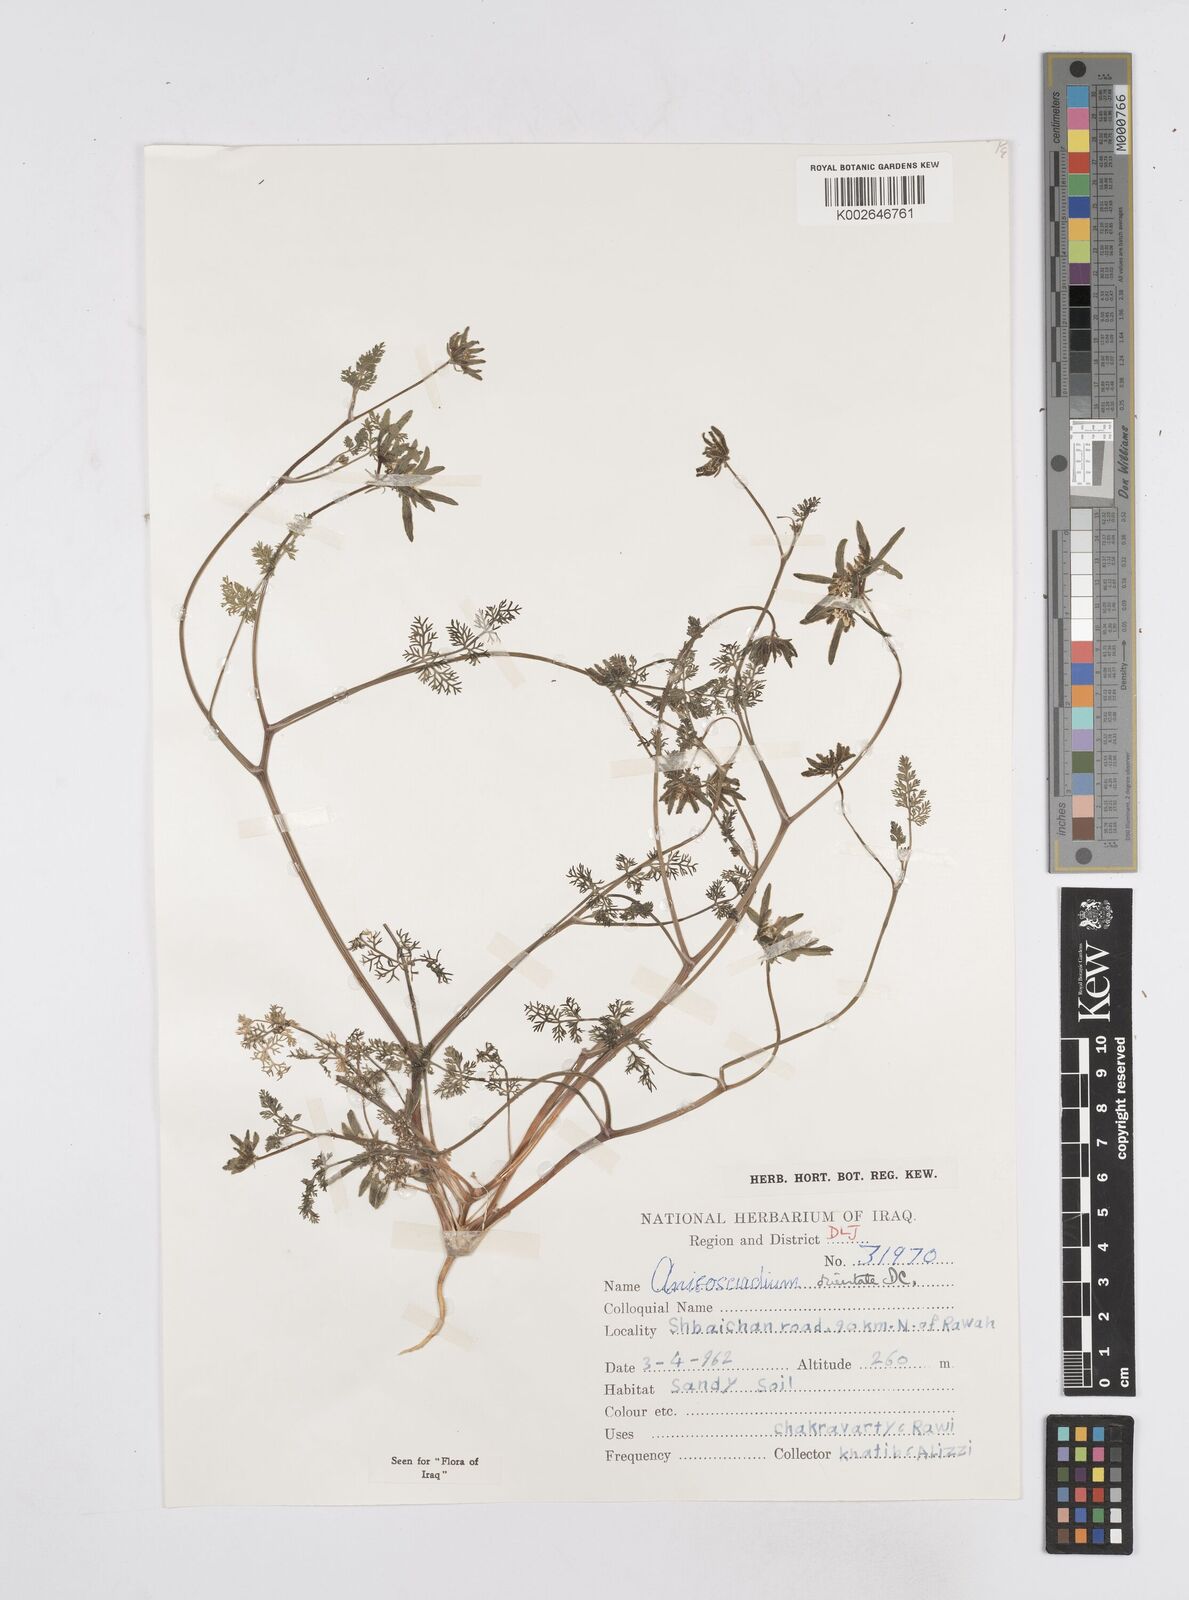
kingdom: Plantae
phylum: Tracheophyta
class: Magnoliopsida
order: Apiales
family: Apiaceae
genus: Anisosciadium
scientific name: Anisosciadium orientale
